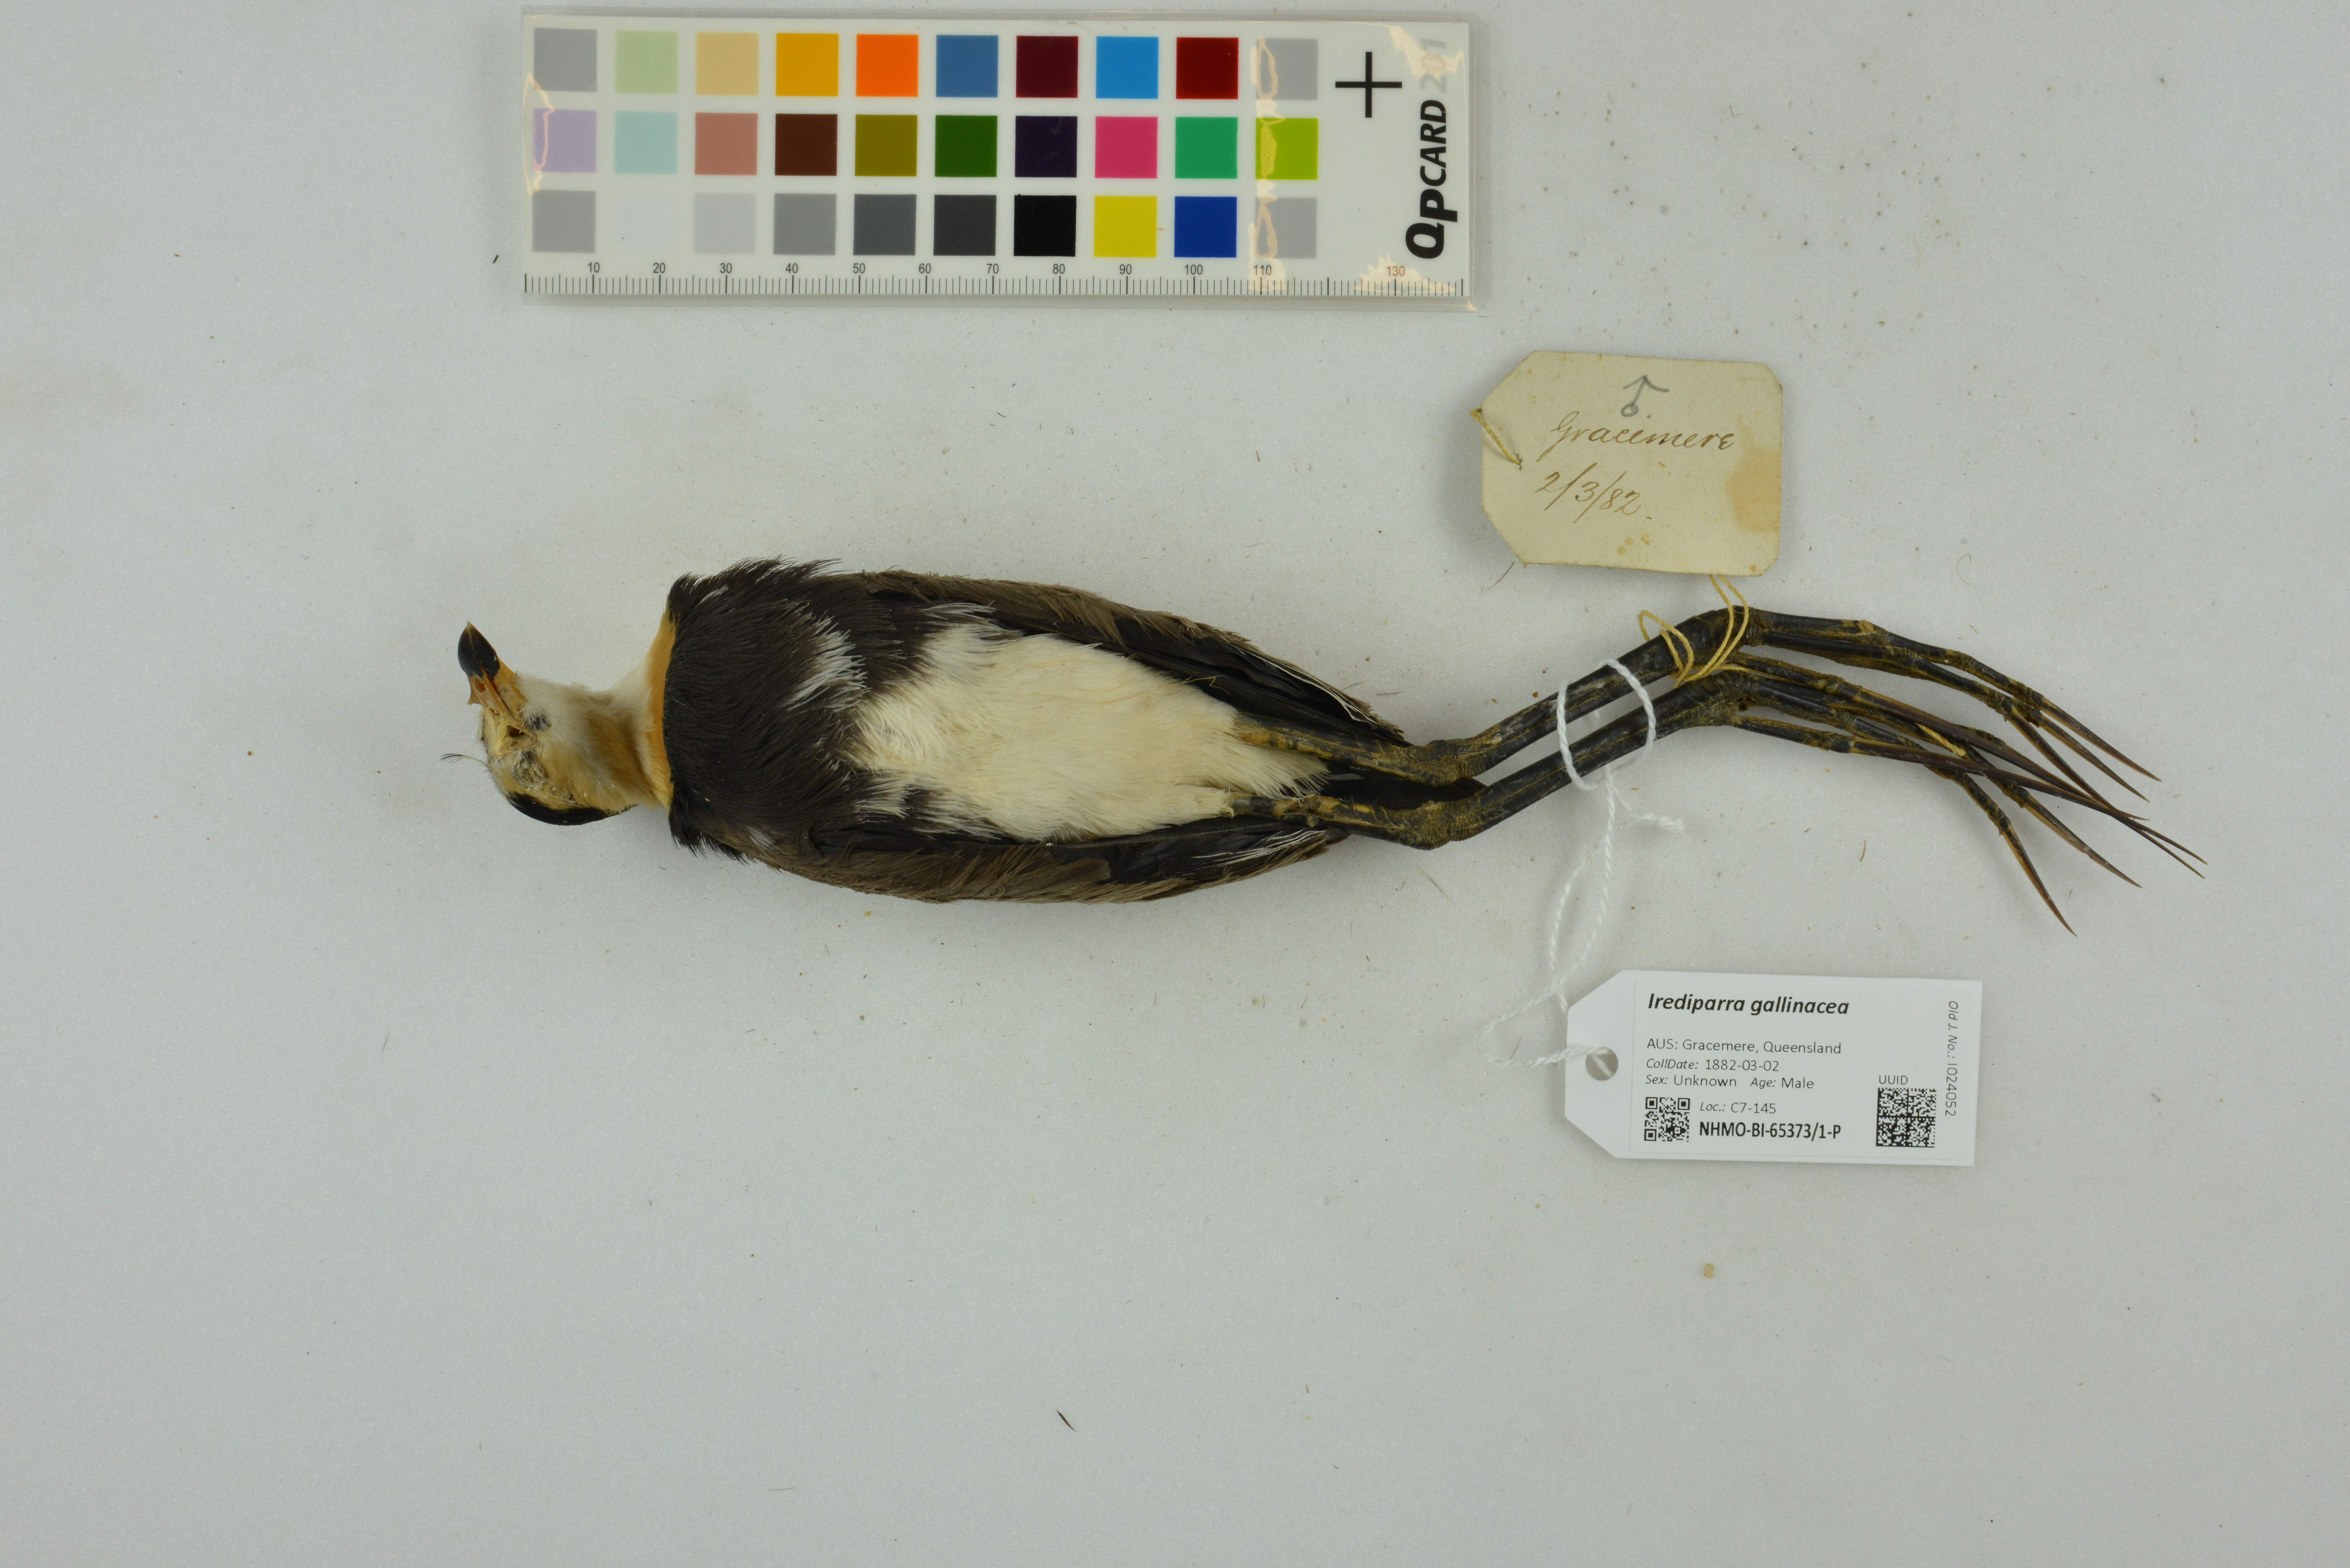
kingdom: Animalia
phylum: Chordata
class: Aves
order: Charadriiformes
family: Jacanidae
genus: Irediparra
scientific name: Irediparra gallinacea
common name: Comb-crested jacana
